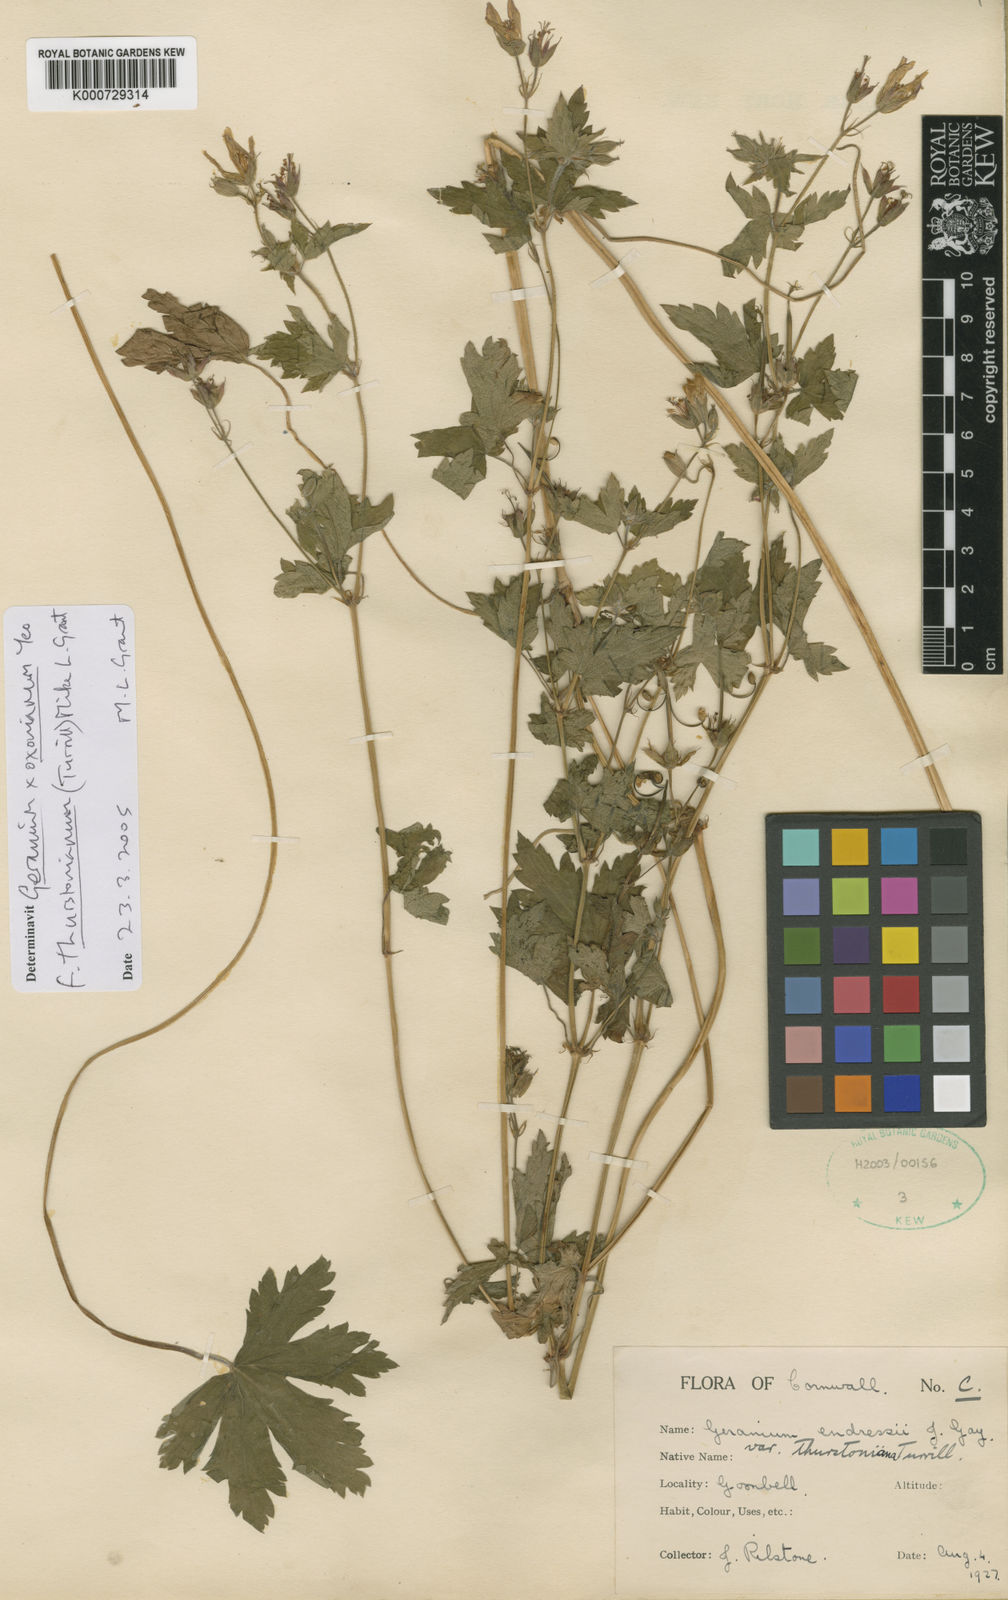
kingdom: Plantae
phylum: Tracheophyta
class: Magnoliopsida
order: Geraniales
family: Geraniaceae
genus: Geranium
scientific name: Geranium oxonianum
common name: Druce's crane's-bill
